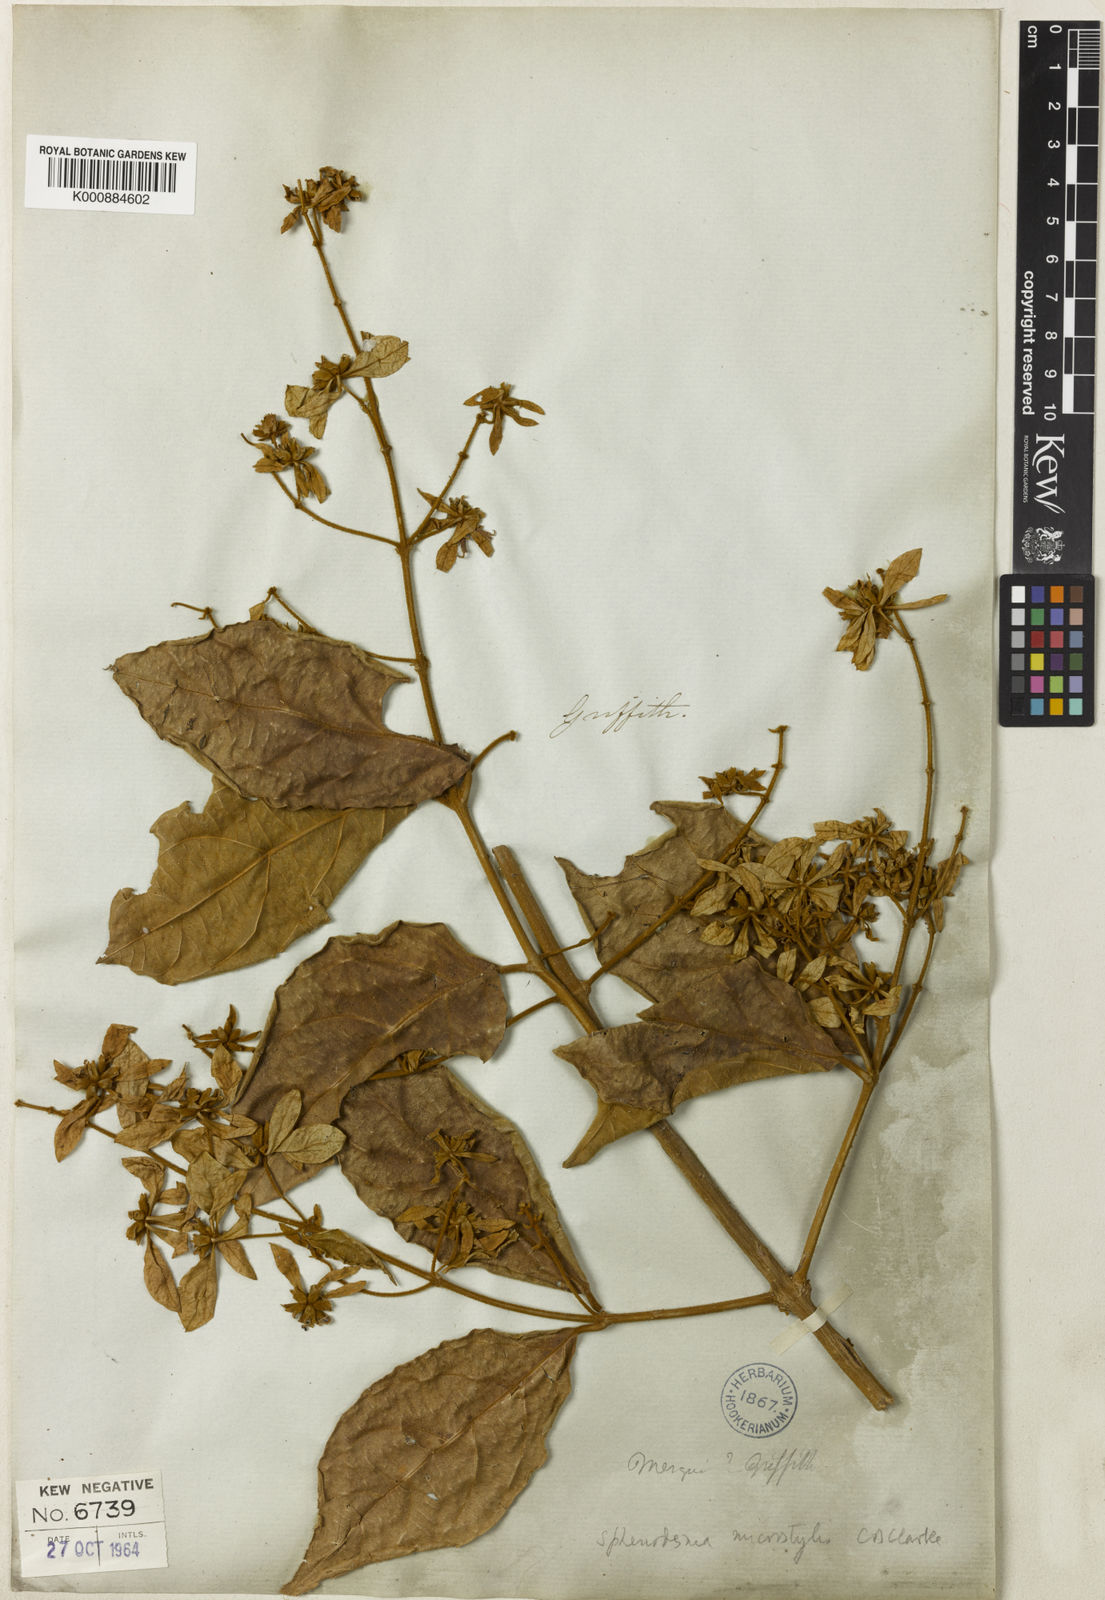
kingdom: Plantae
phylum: Tracheophyta
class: Magnoliopsida
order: Lamiales
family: Lamiaceae
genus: Sphenodesme
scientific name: Sphenodesme ferruginea
